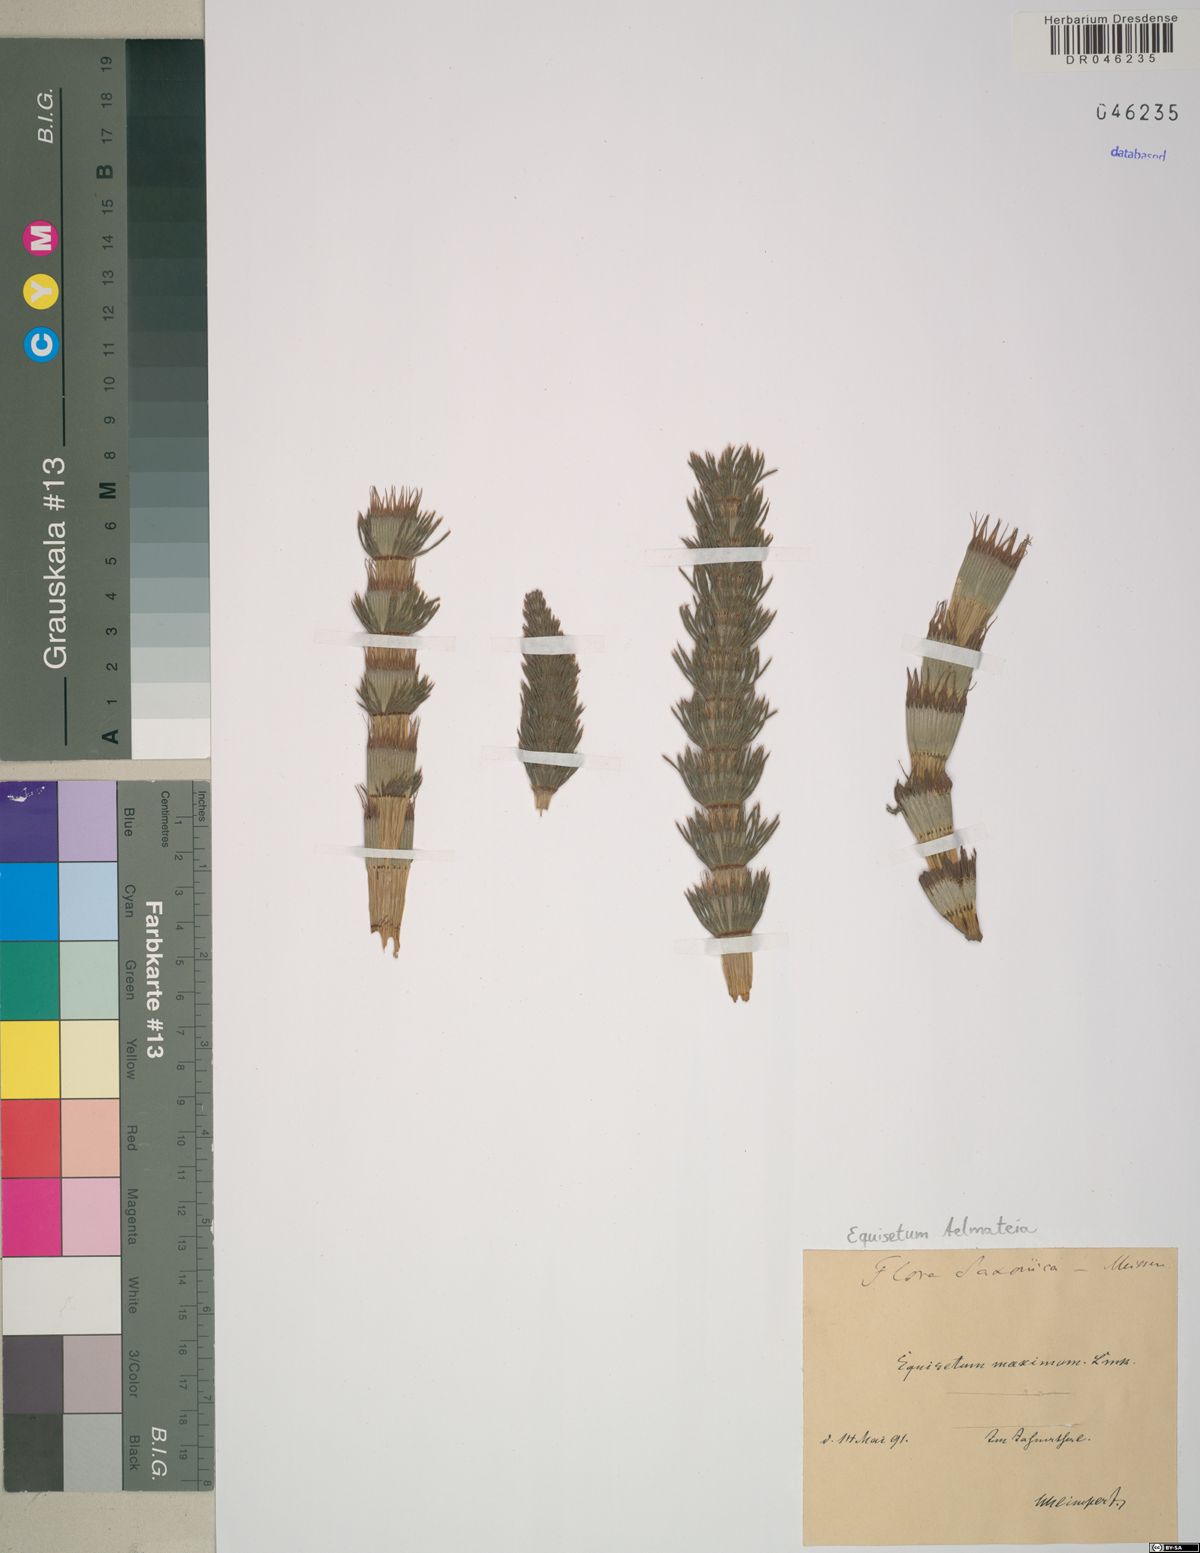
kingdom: Plantae
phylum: Tracheophyta
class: Polypodiopsida
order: Equisetales
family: Equisetaceae
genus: Equisetum
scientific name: Equisetum telmateia
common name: Great horsetail
